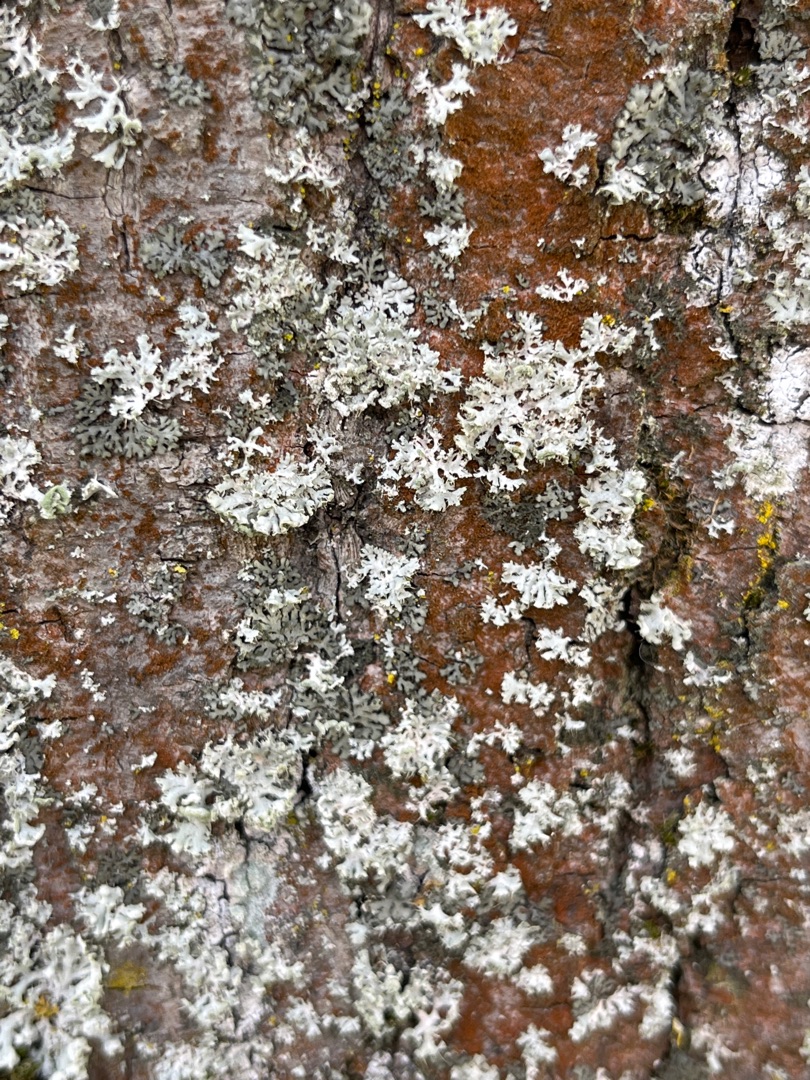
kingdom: Fungi
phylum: Ascomycota
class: Lecanoromycetes
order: Caliciales
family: Physciaceae
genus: Physcia
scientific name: Physcia tenella
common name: Spæd rosetlav
